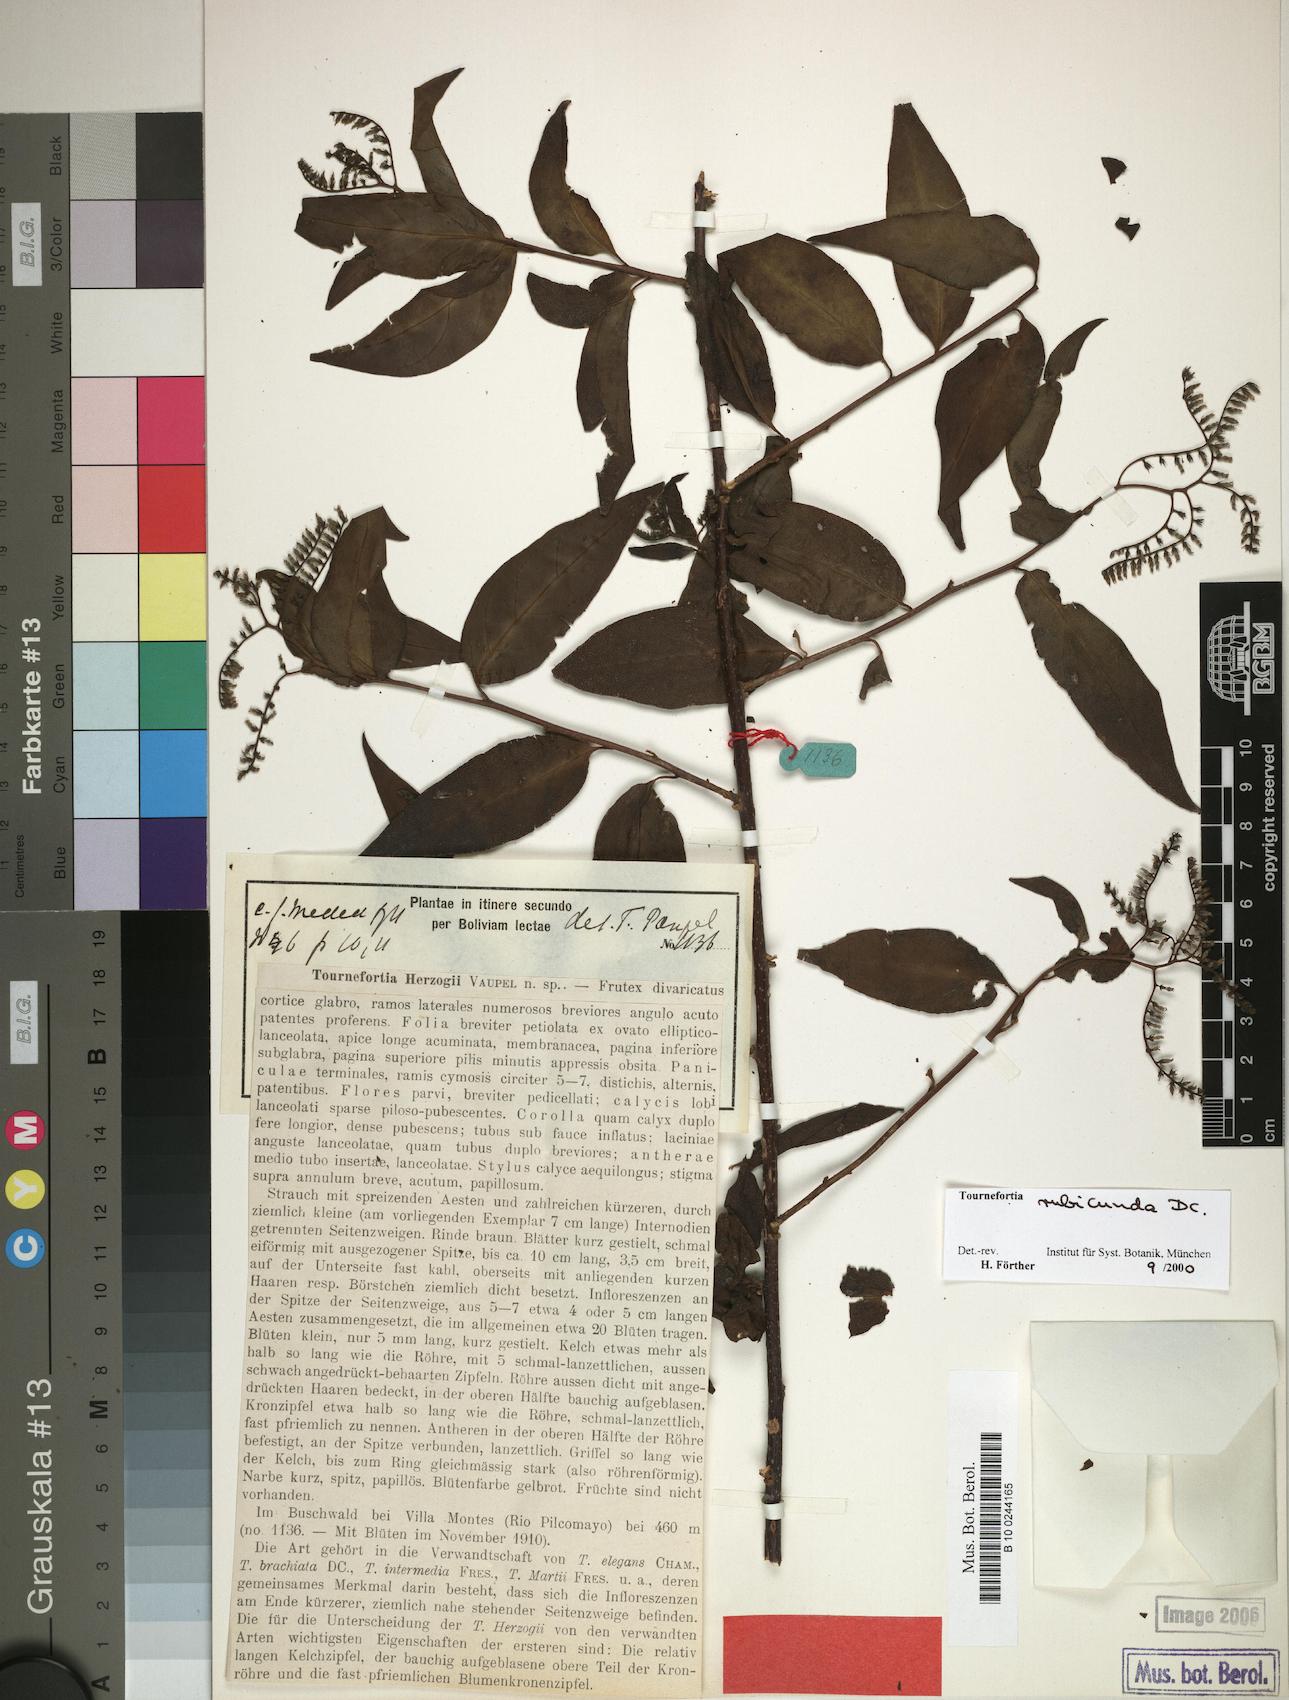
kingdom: Plantae
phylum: Tracheophyta
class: Magnoliopsida
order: Boraginales
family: Heliotropiaceae
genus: Myriopus
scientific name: Myriopus rubicundus
